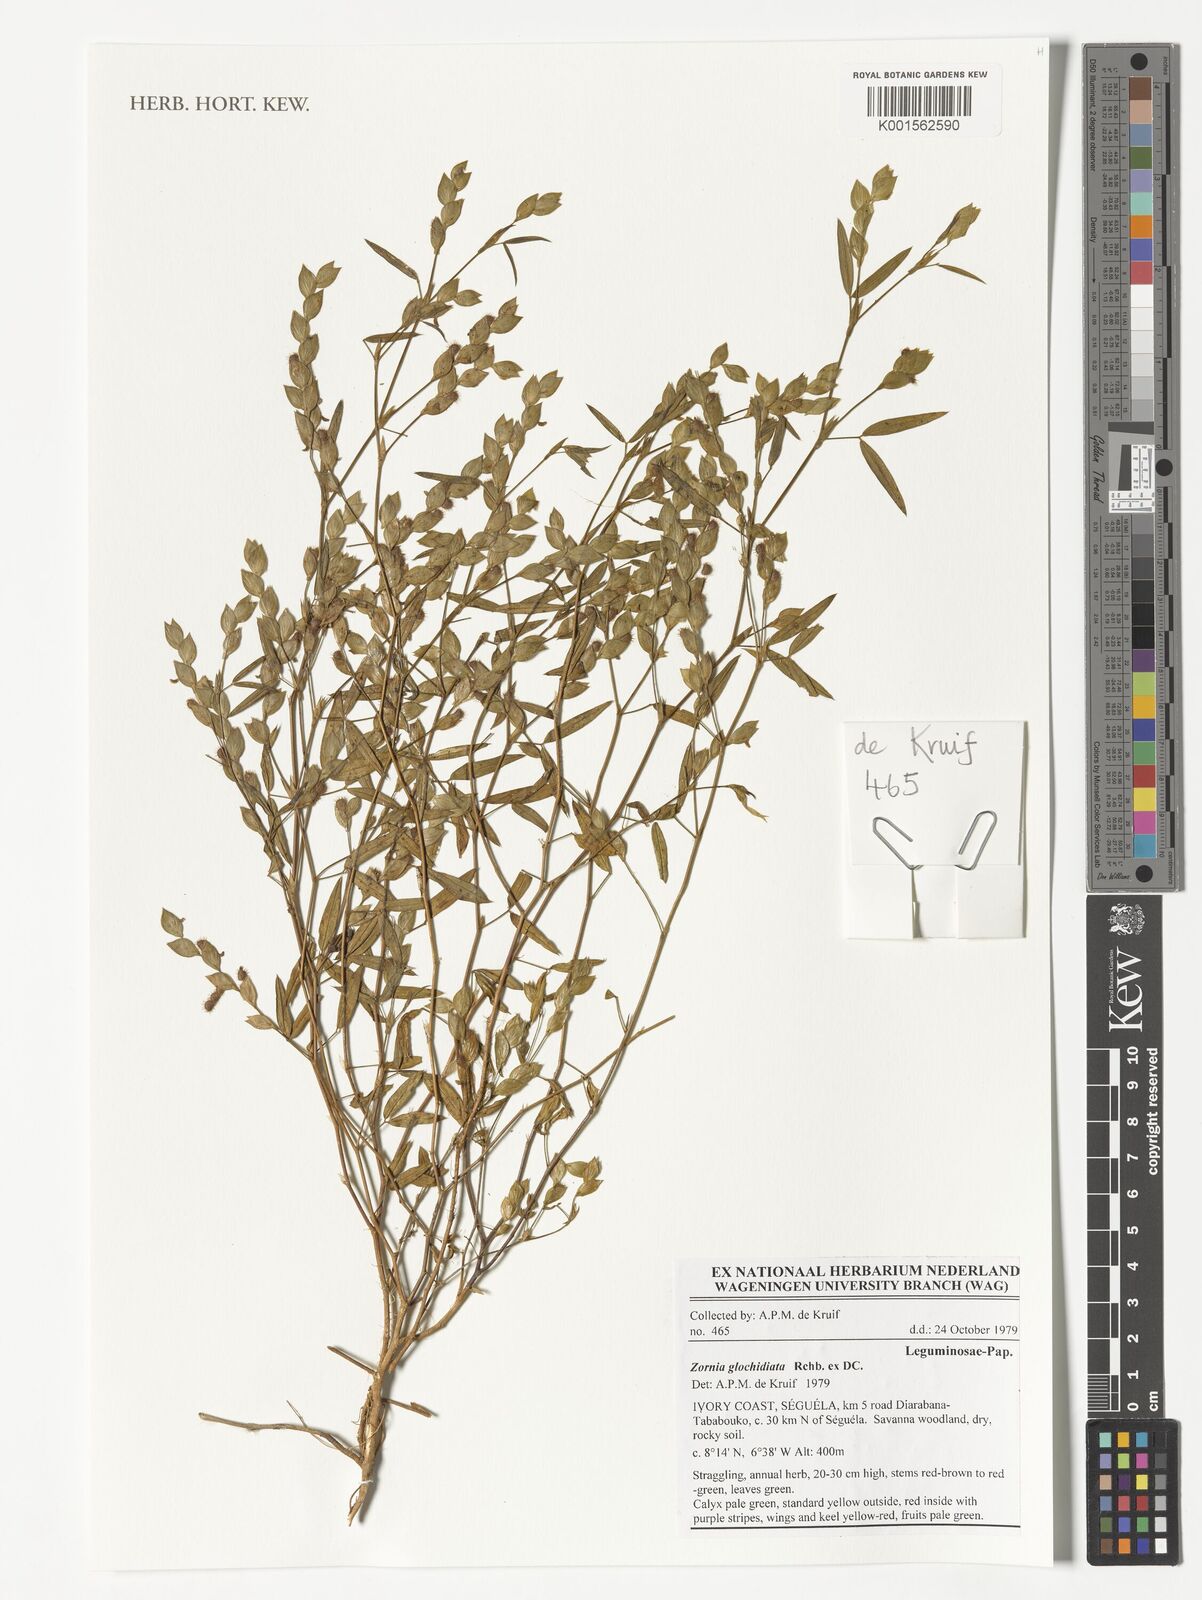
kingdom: Plantae
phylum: Tracheophyta
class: Magnoliopsida
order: Fabales
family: Fabaceae
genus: Zornia
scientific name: Zornia glochidiata
